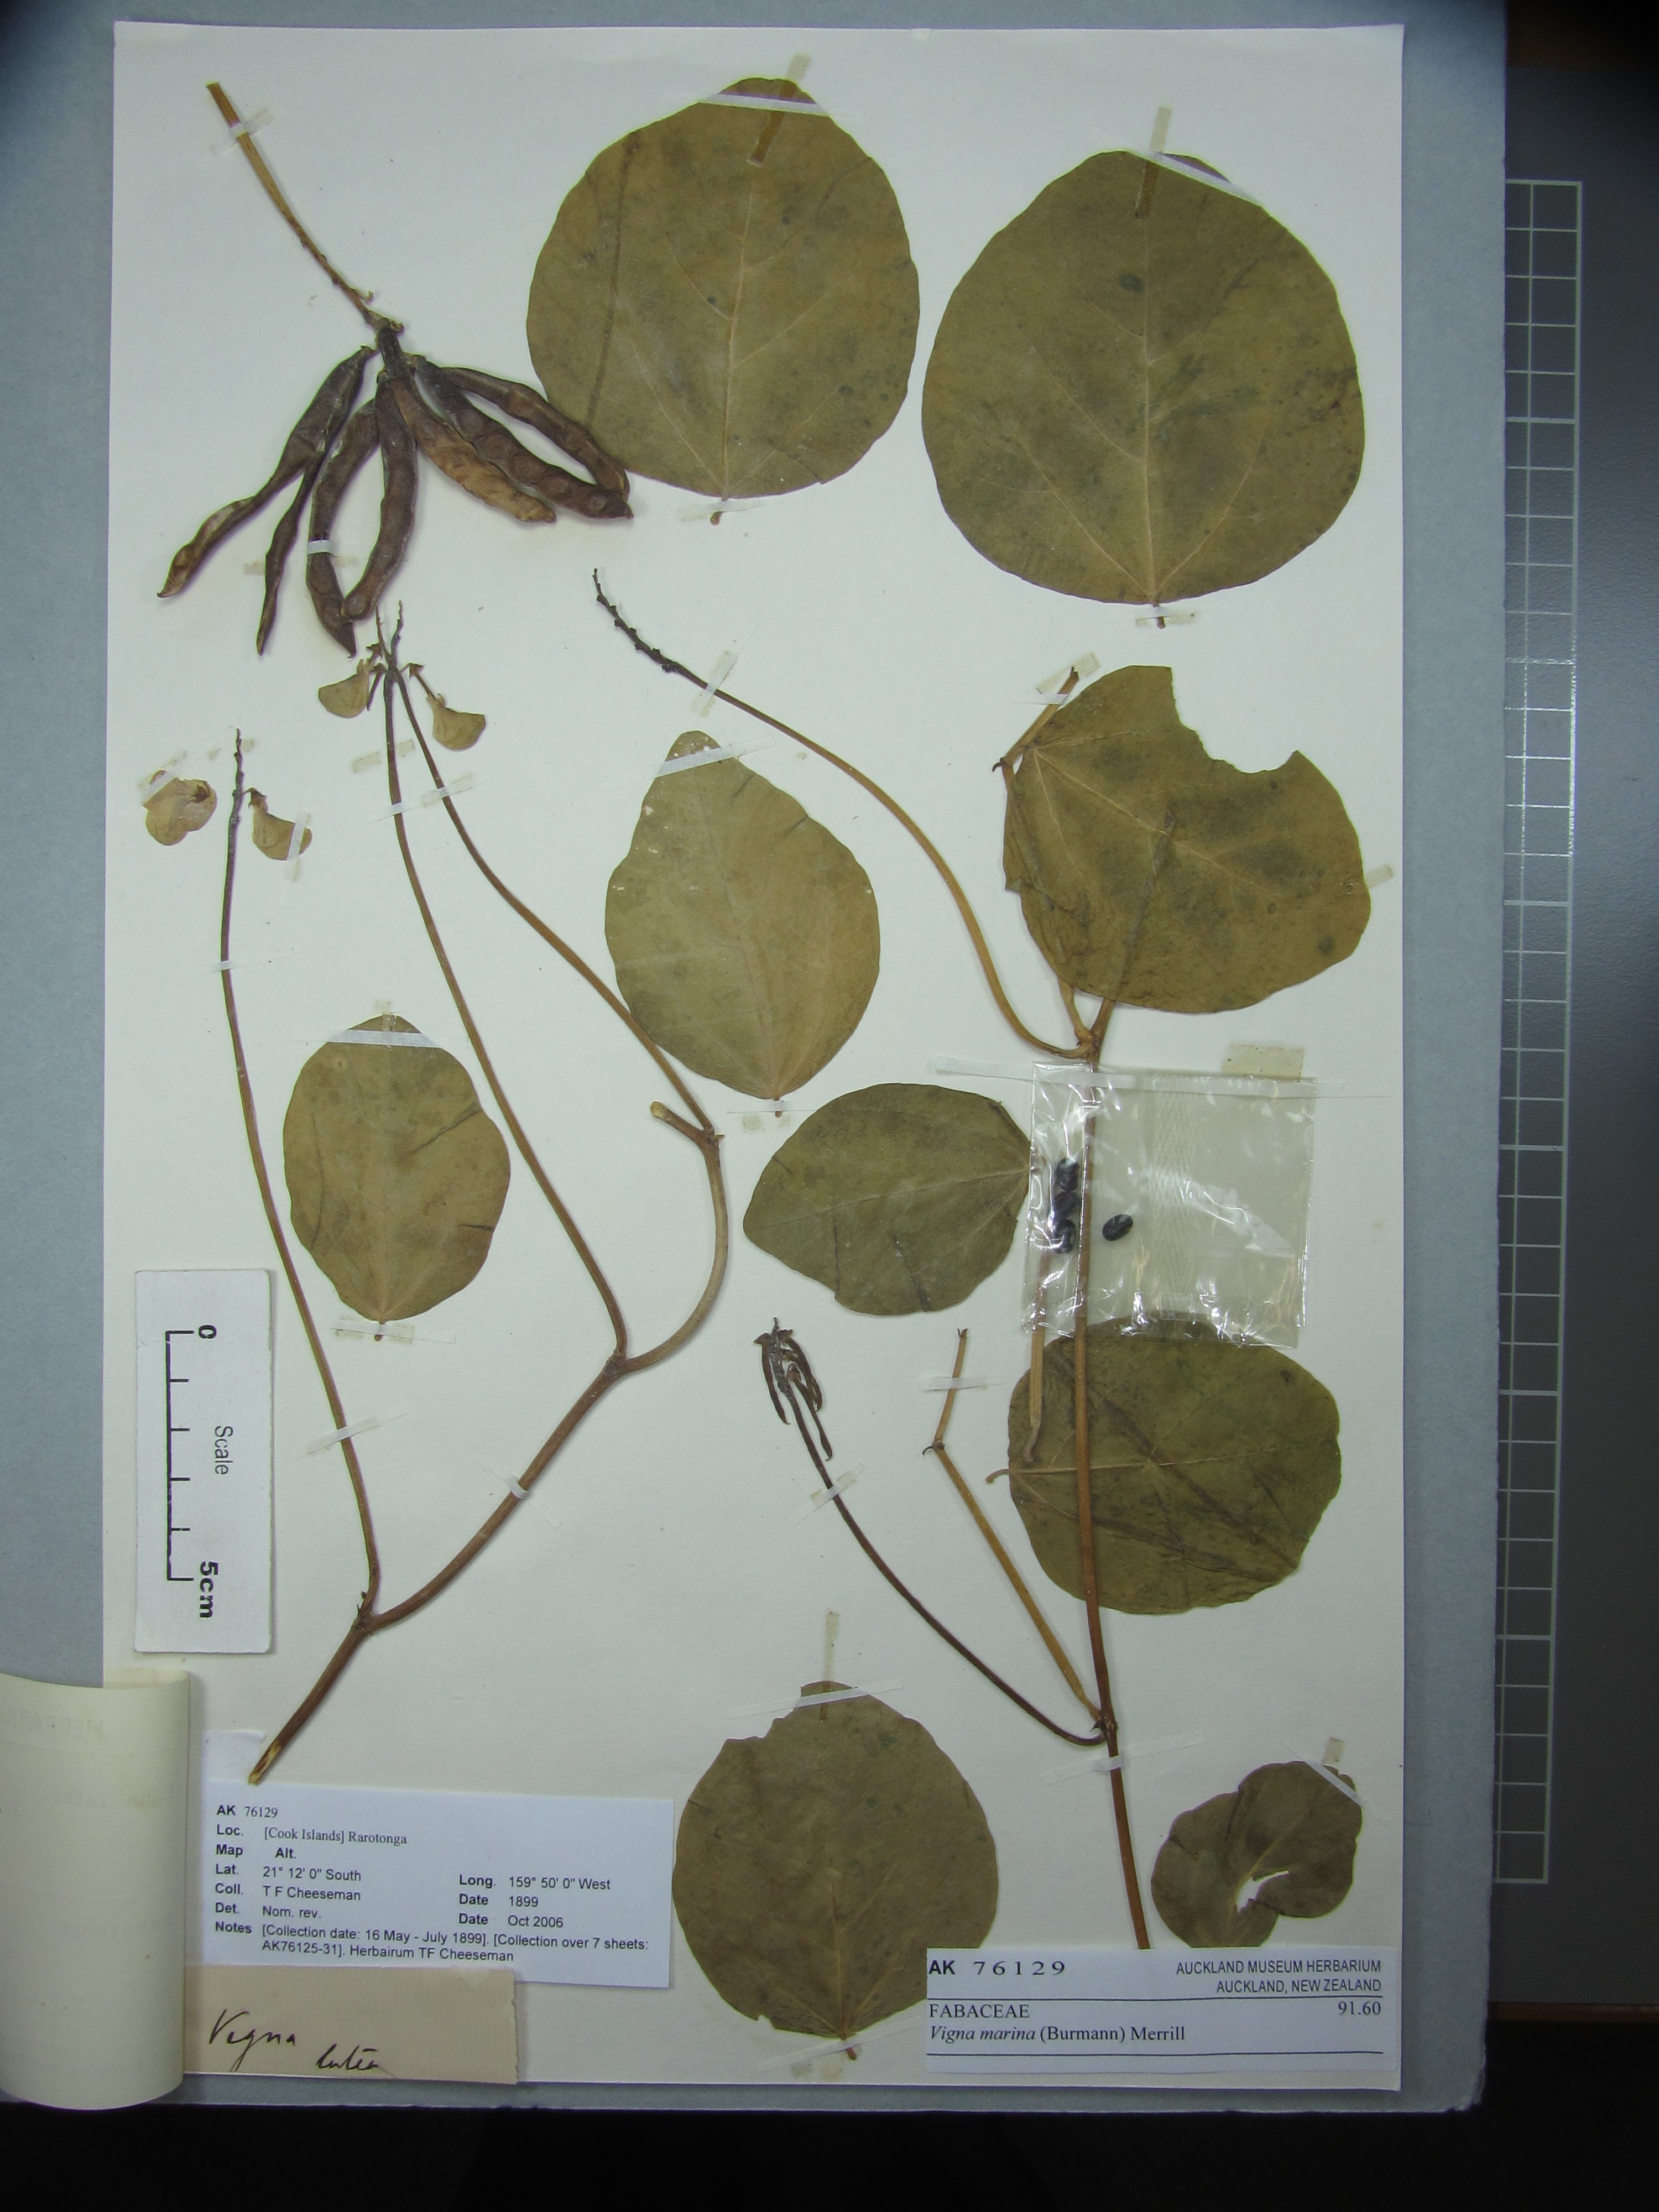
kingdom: Plantae
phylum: Tracheophyta
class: Magnoliopsida
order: Fabales
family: Fabaceae
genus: Vigna
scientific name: Vigna marina
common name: Dune-bean
